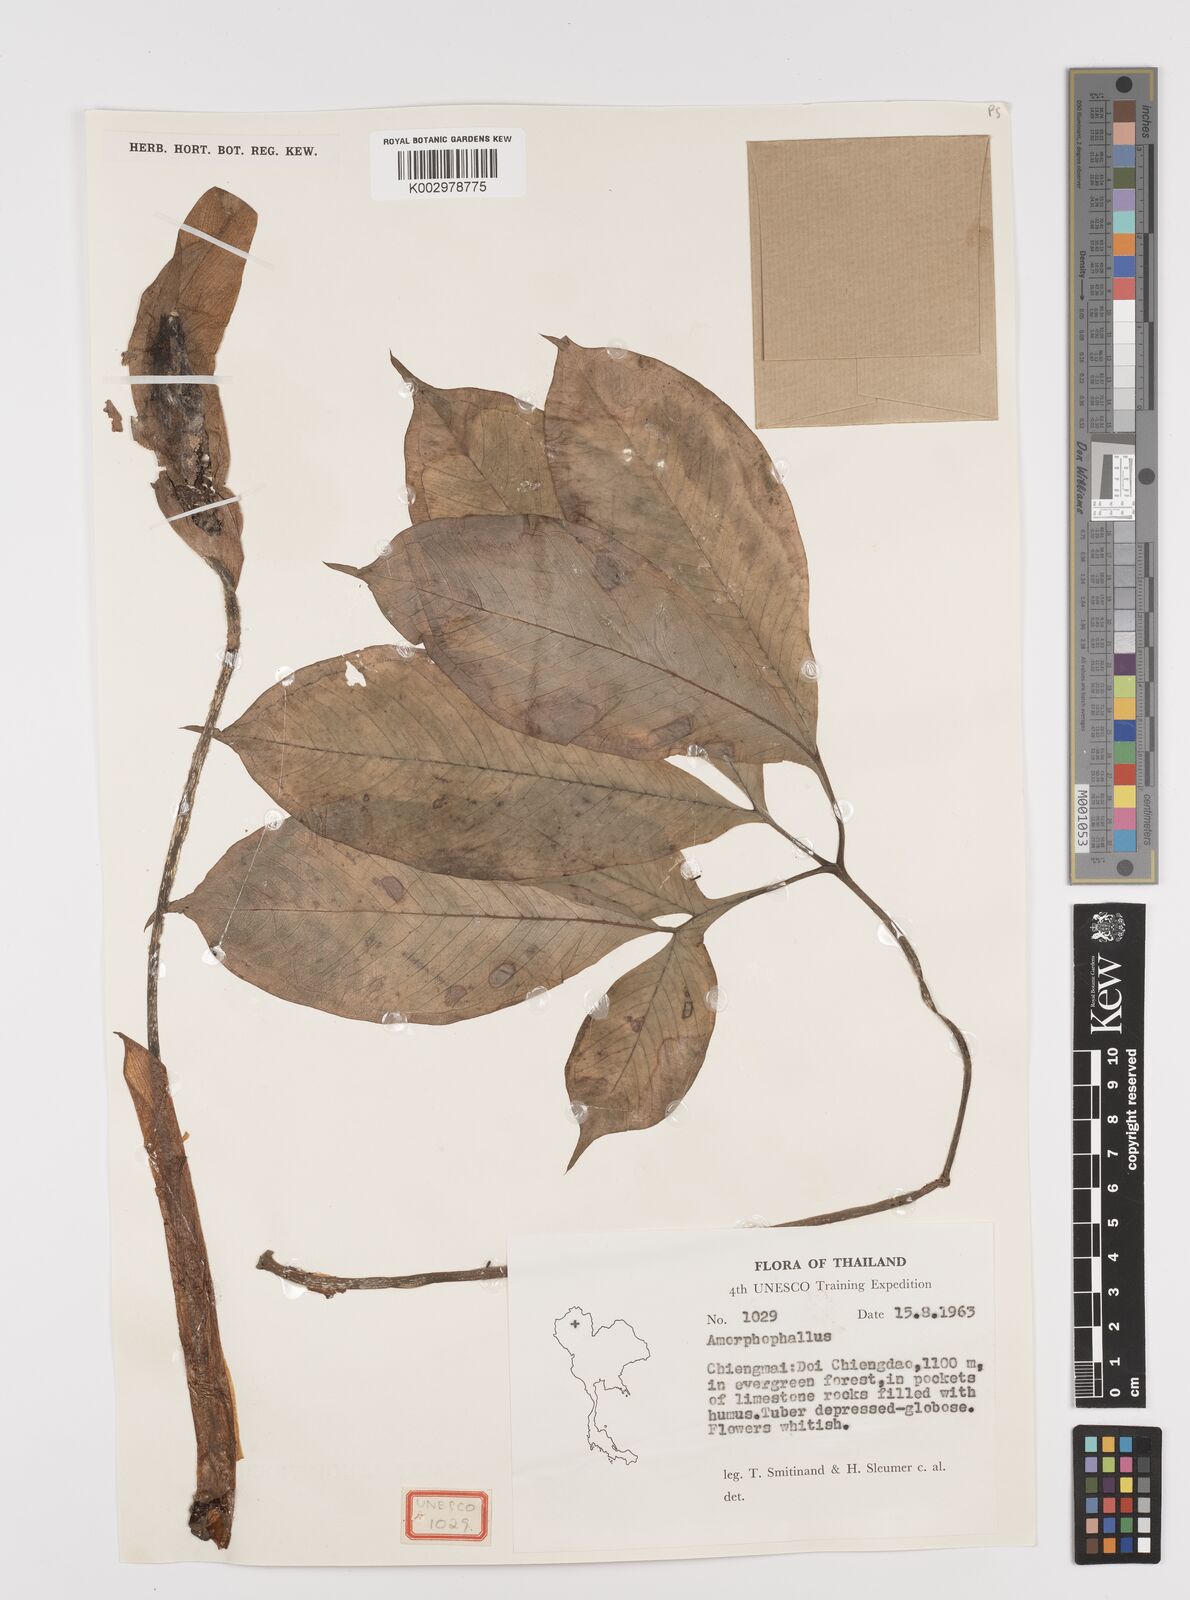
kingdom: Plantae
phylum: Tracheophyta
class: Liliopsida
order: Alismatales
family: Araceae
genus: Amorphophallus
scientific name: Amorphophallus
